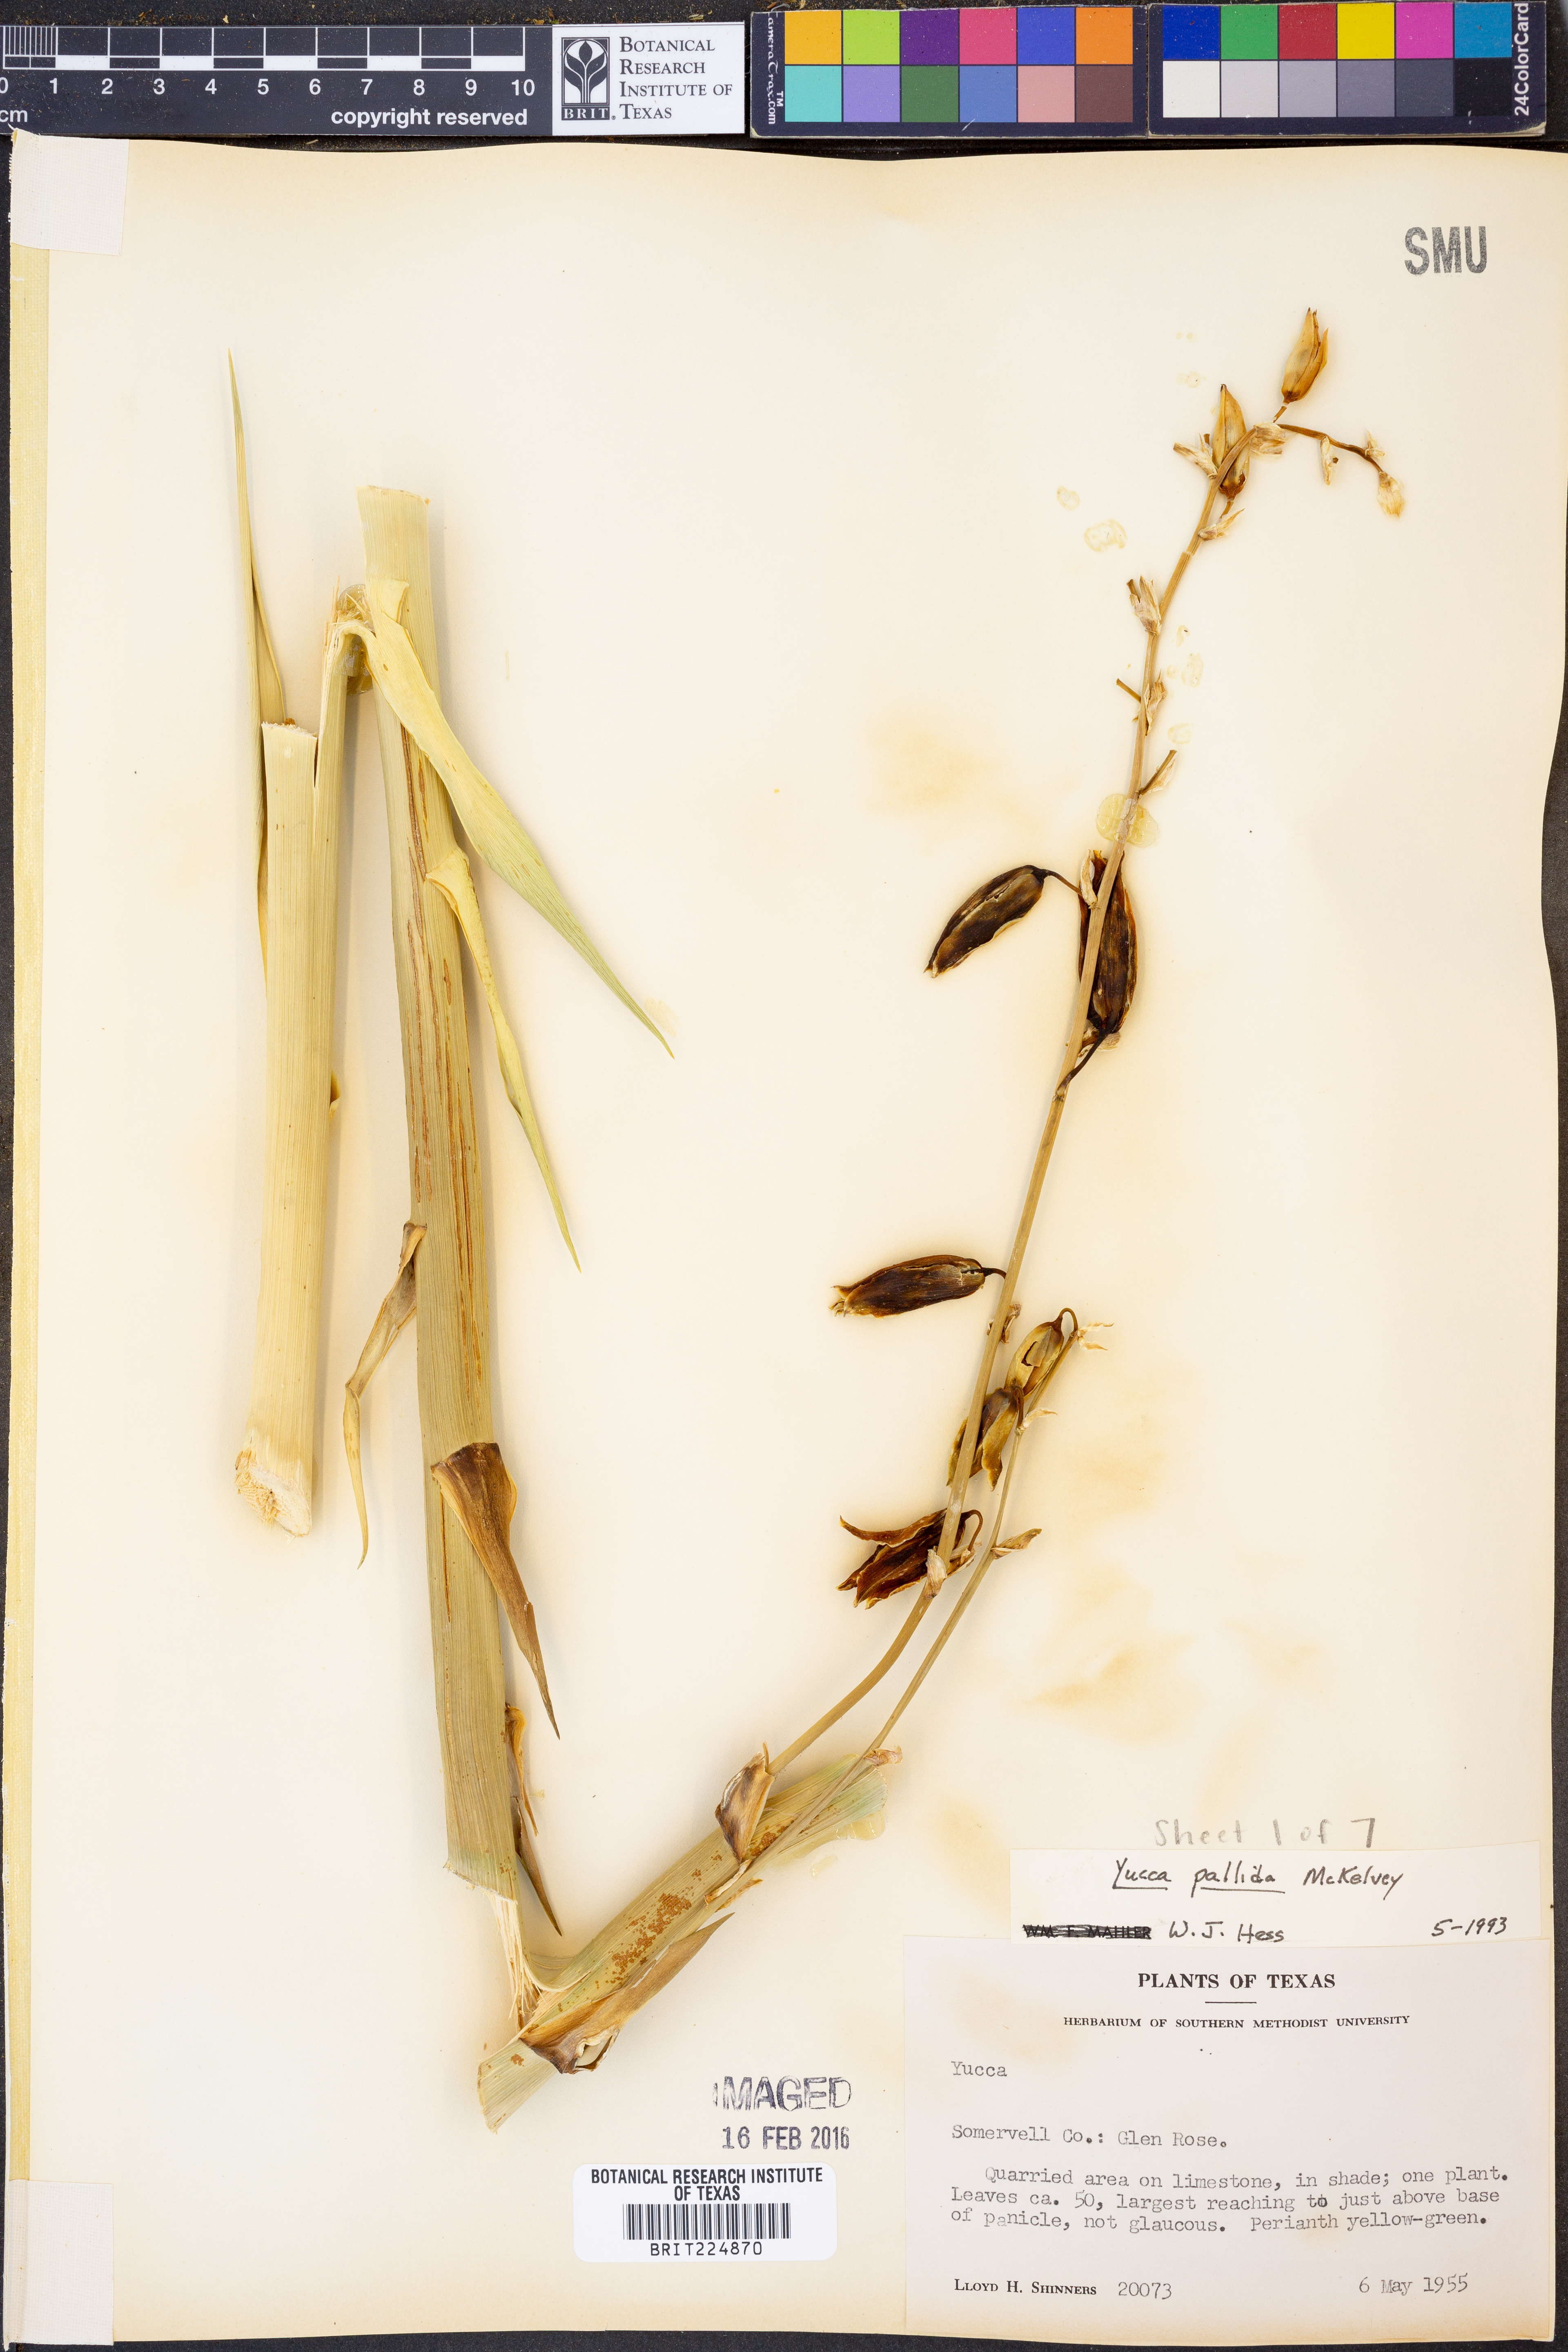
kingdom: Plantae
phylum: Tracheophyta
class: Liliopsida
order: Asparagales
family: Asparagaceae
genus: Yucca
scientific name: Yucca pallida
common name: Pale leaf yucca
